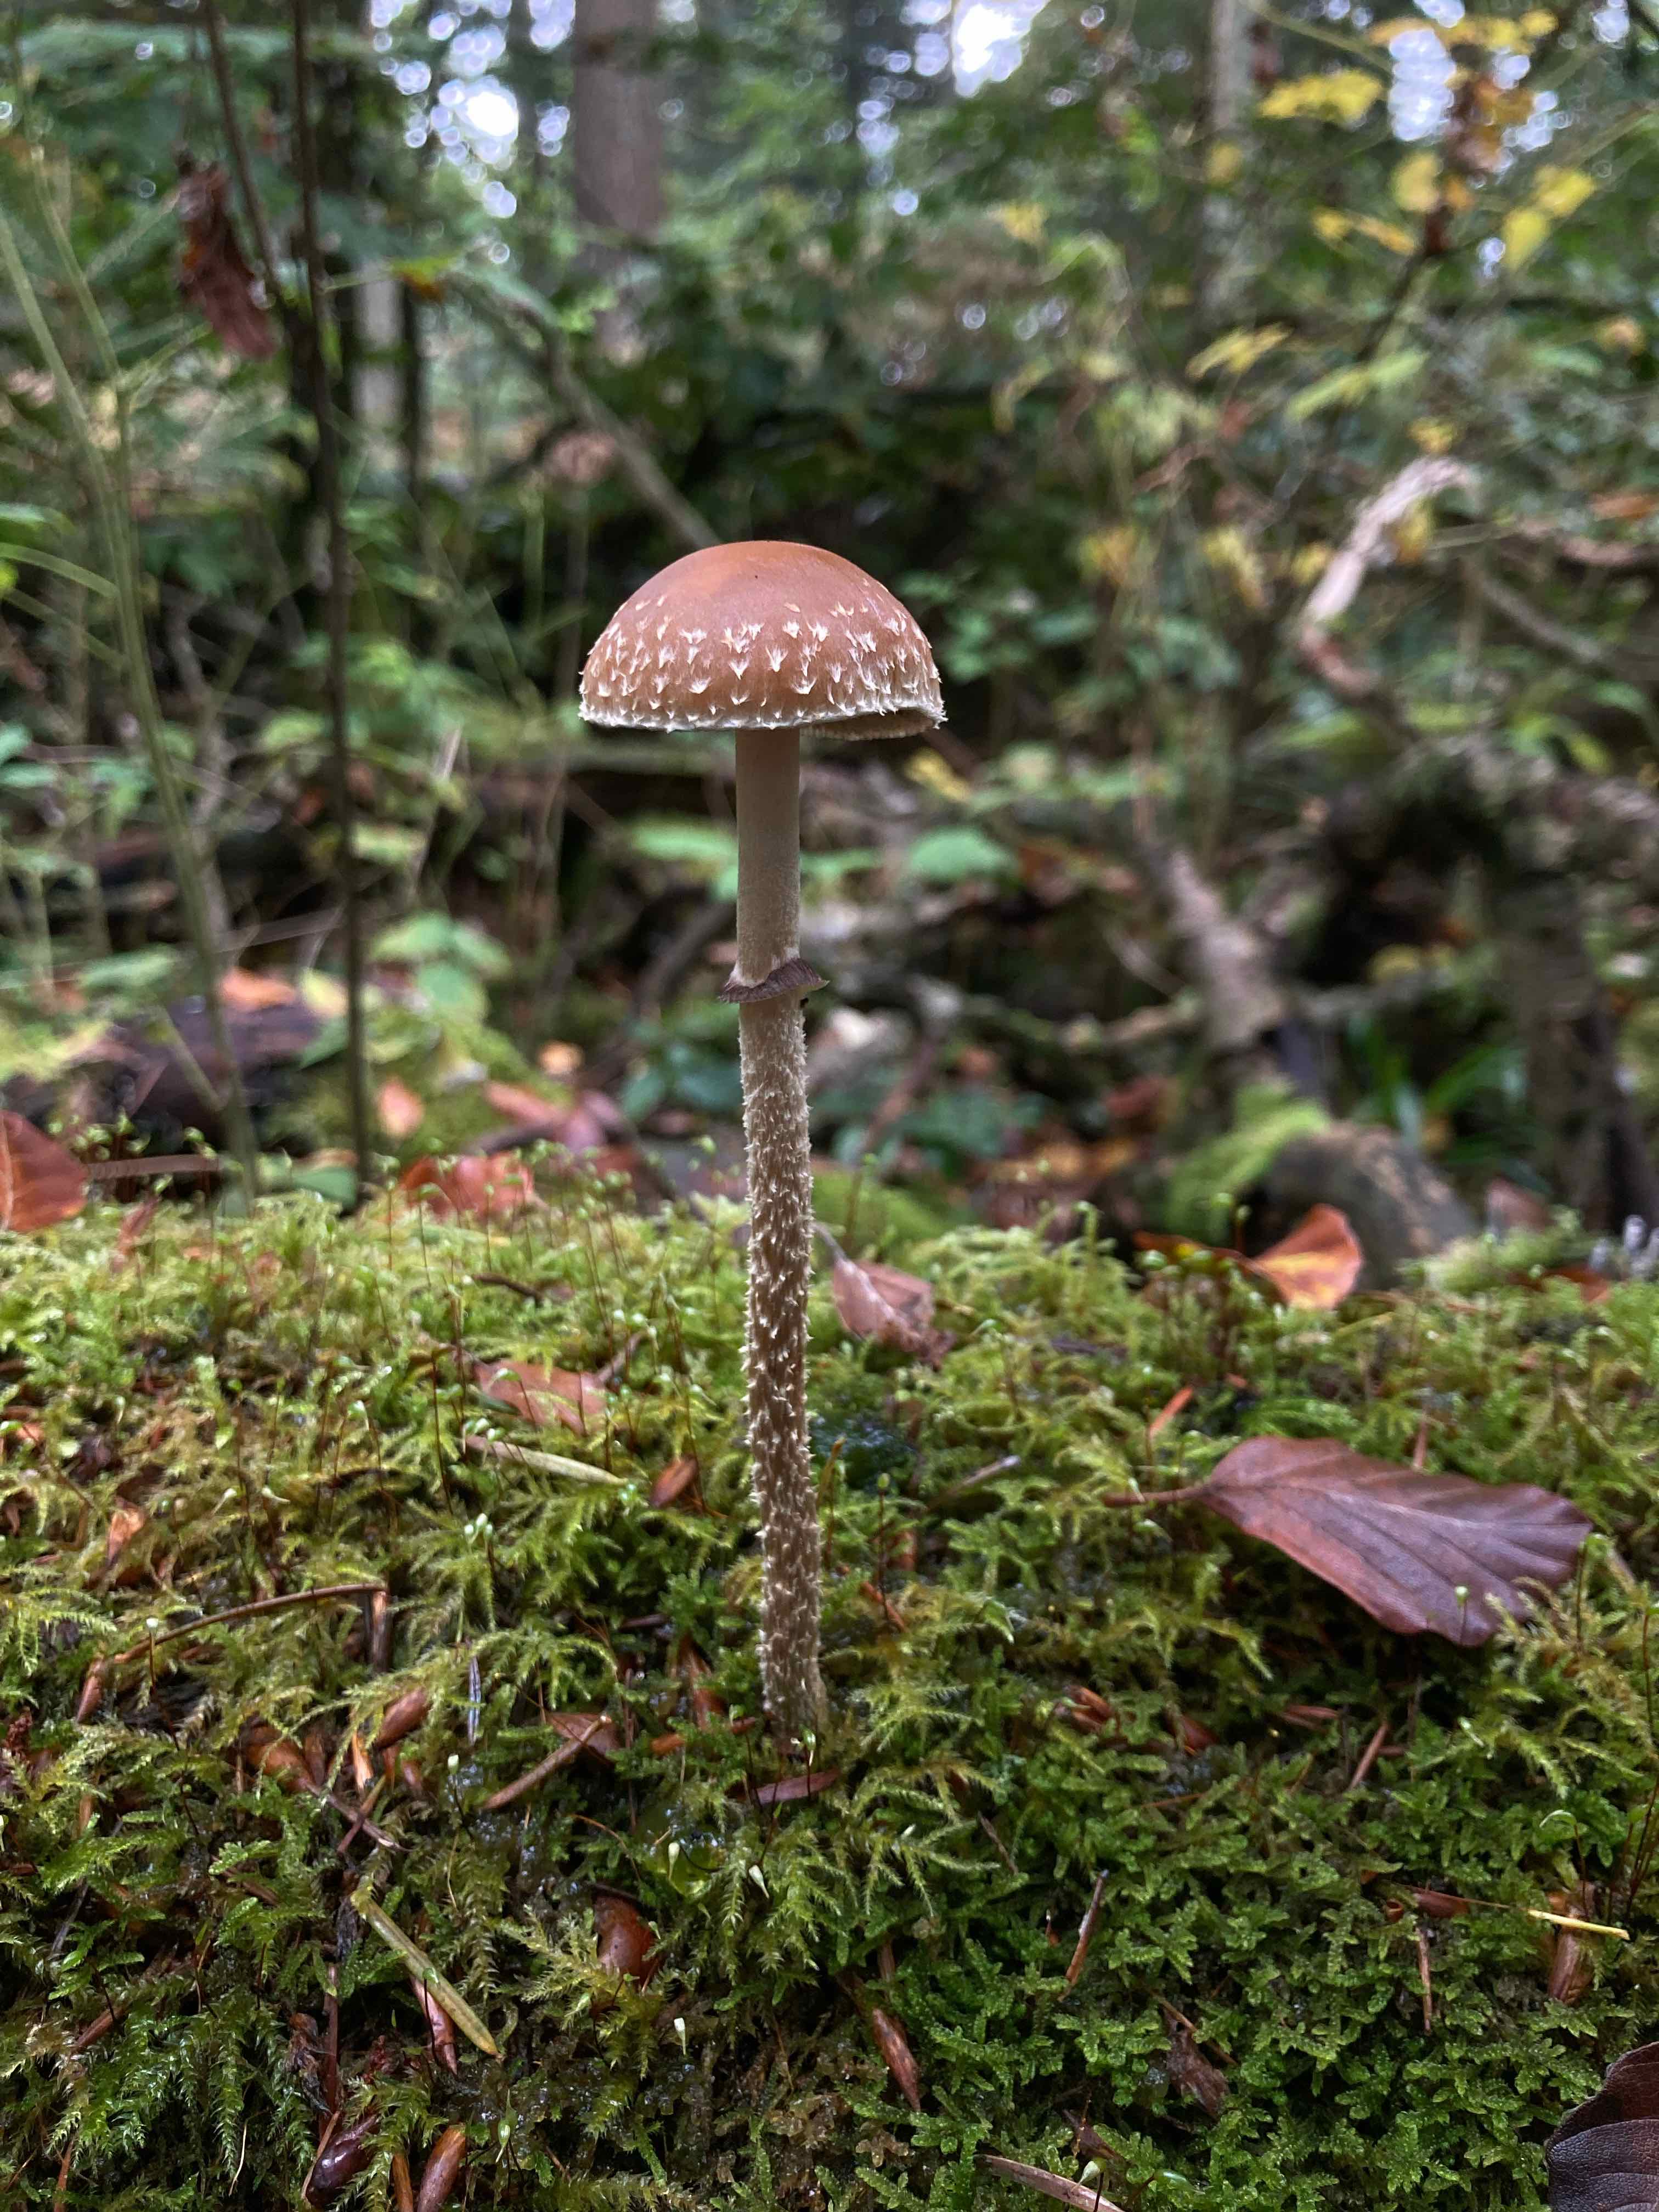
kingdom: Fungi
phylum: Basidiomycota
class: Agaricomycetes
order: Agaricales
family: Strophariaceae
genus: Leratiomyces
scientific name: Leratiomyces squamosus
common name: skællet bredblad
